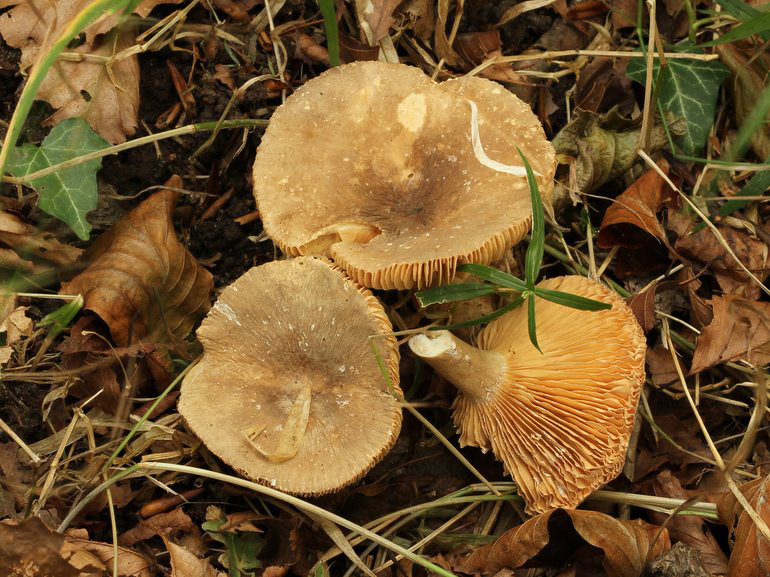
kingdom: Fungi
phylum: Basidiomycota
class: Agaricomycetes
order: Russulales
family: Russulaceae
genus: Lactarius
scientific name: Lactarius pterosporus
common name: vingesporet mælkehat
